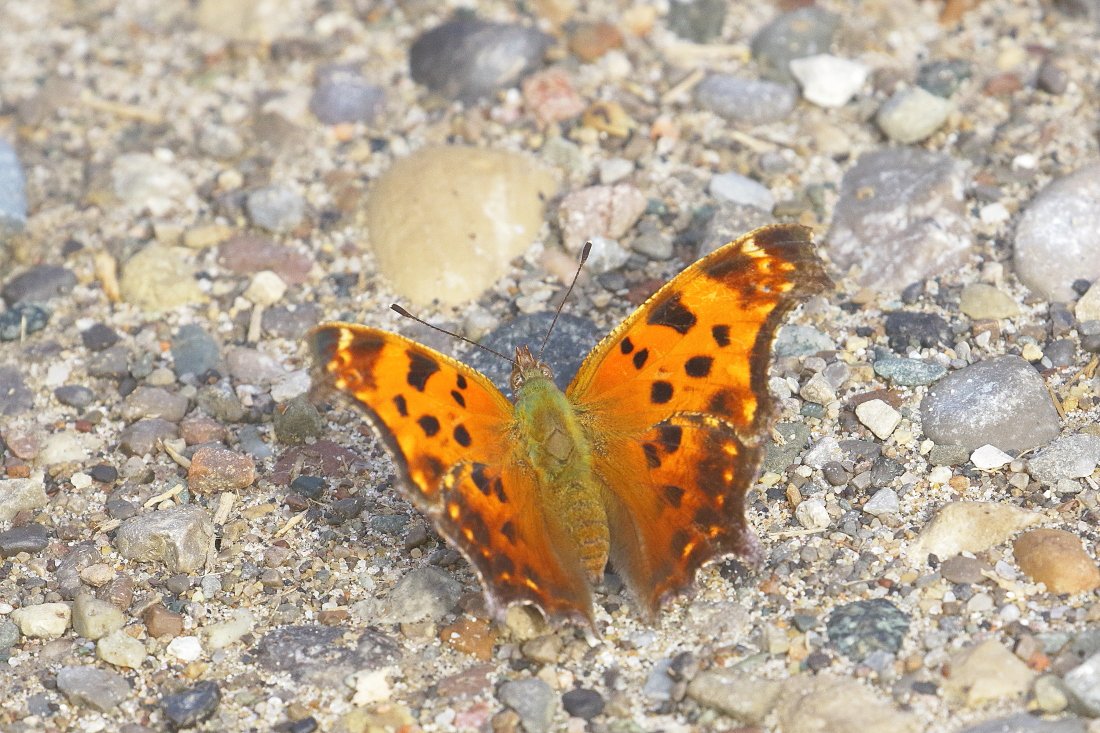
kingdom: Animalia
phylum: Arthropoda
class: Insecta
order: Lepidoptera
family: Nymphalidae
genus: Polygonia
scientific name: Polygonia comma
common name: Eastern Comma
